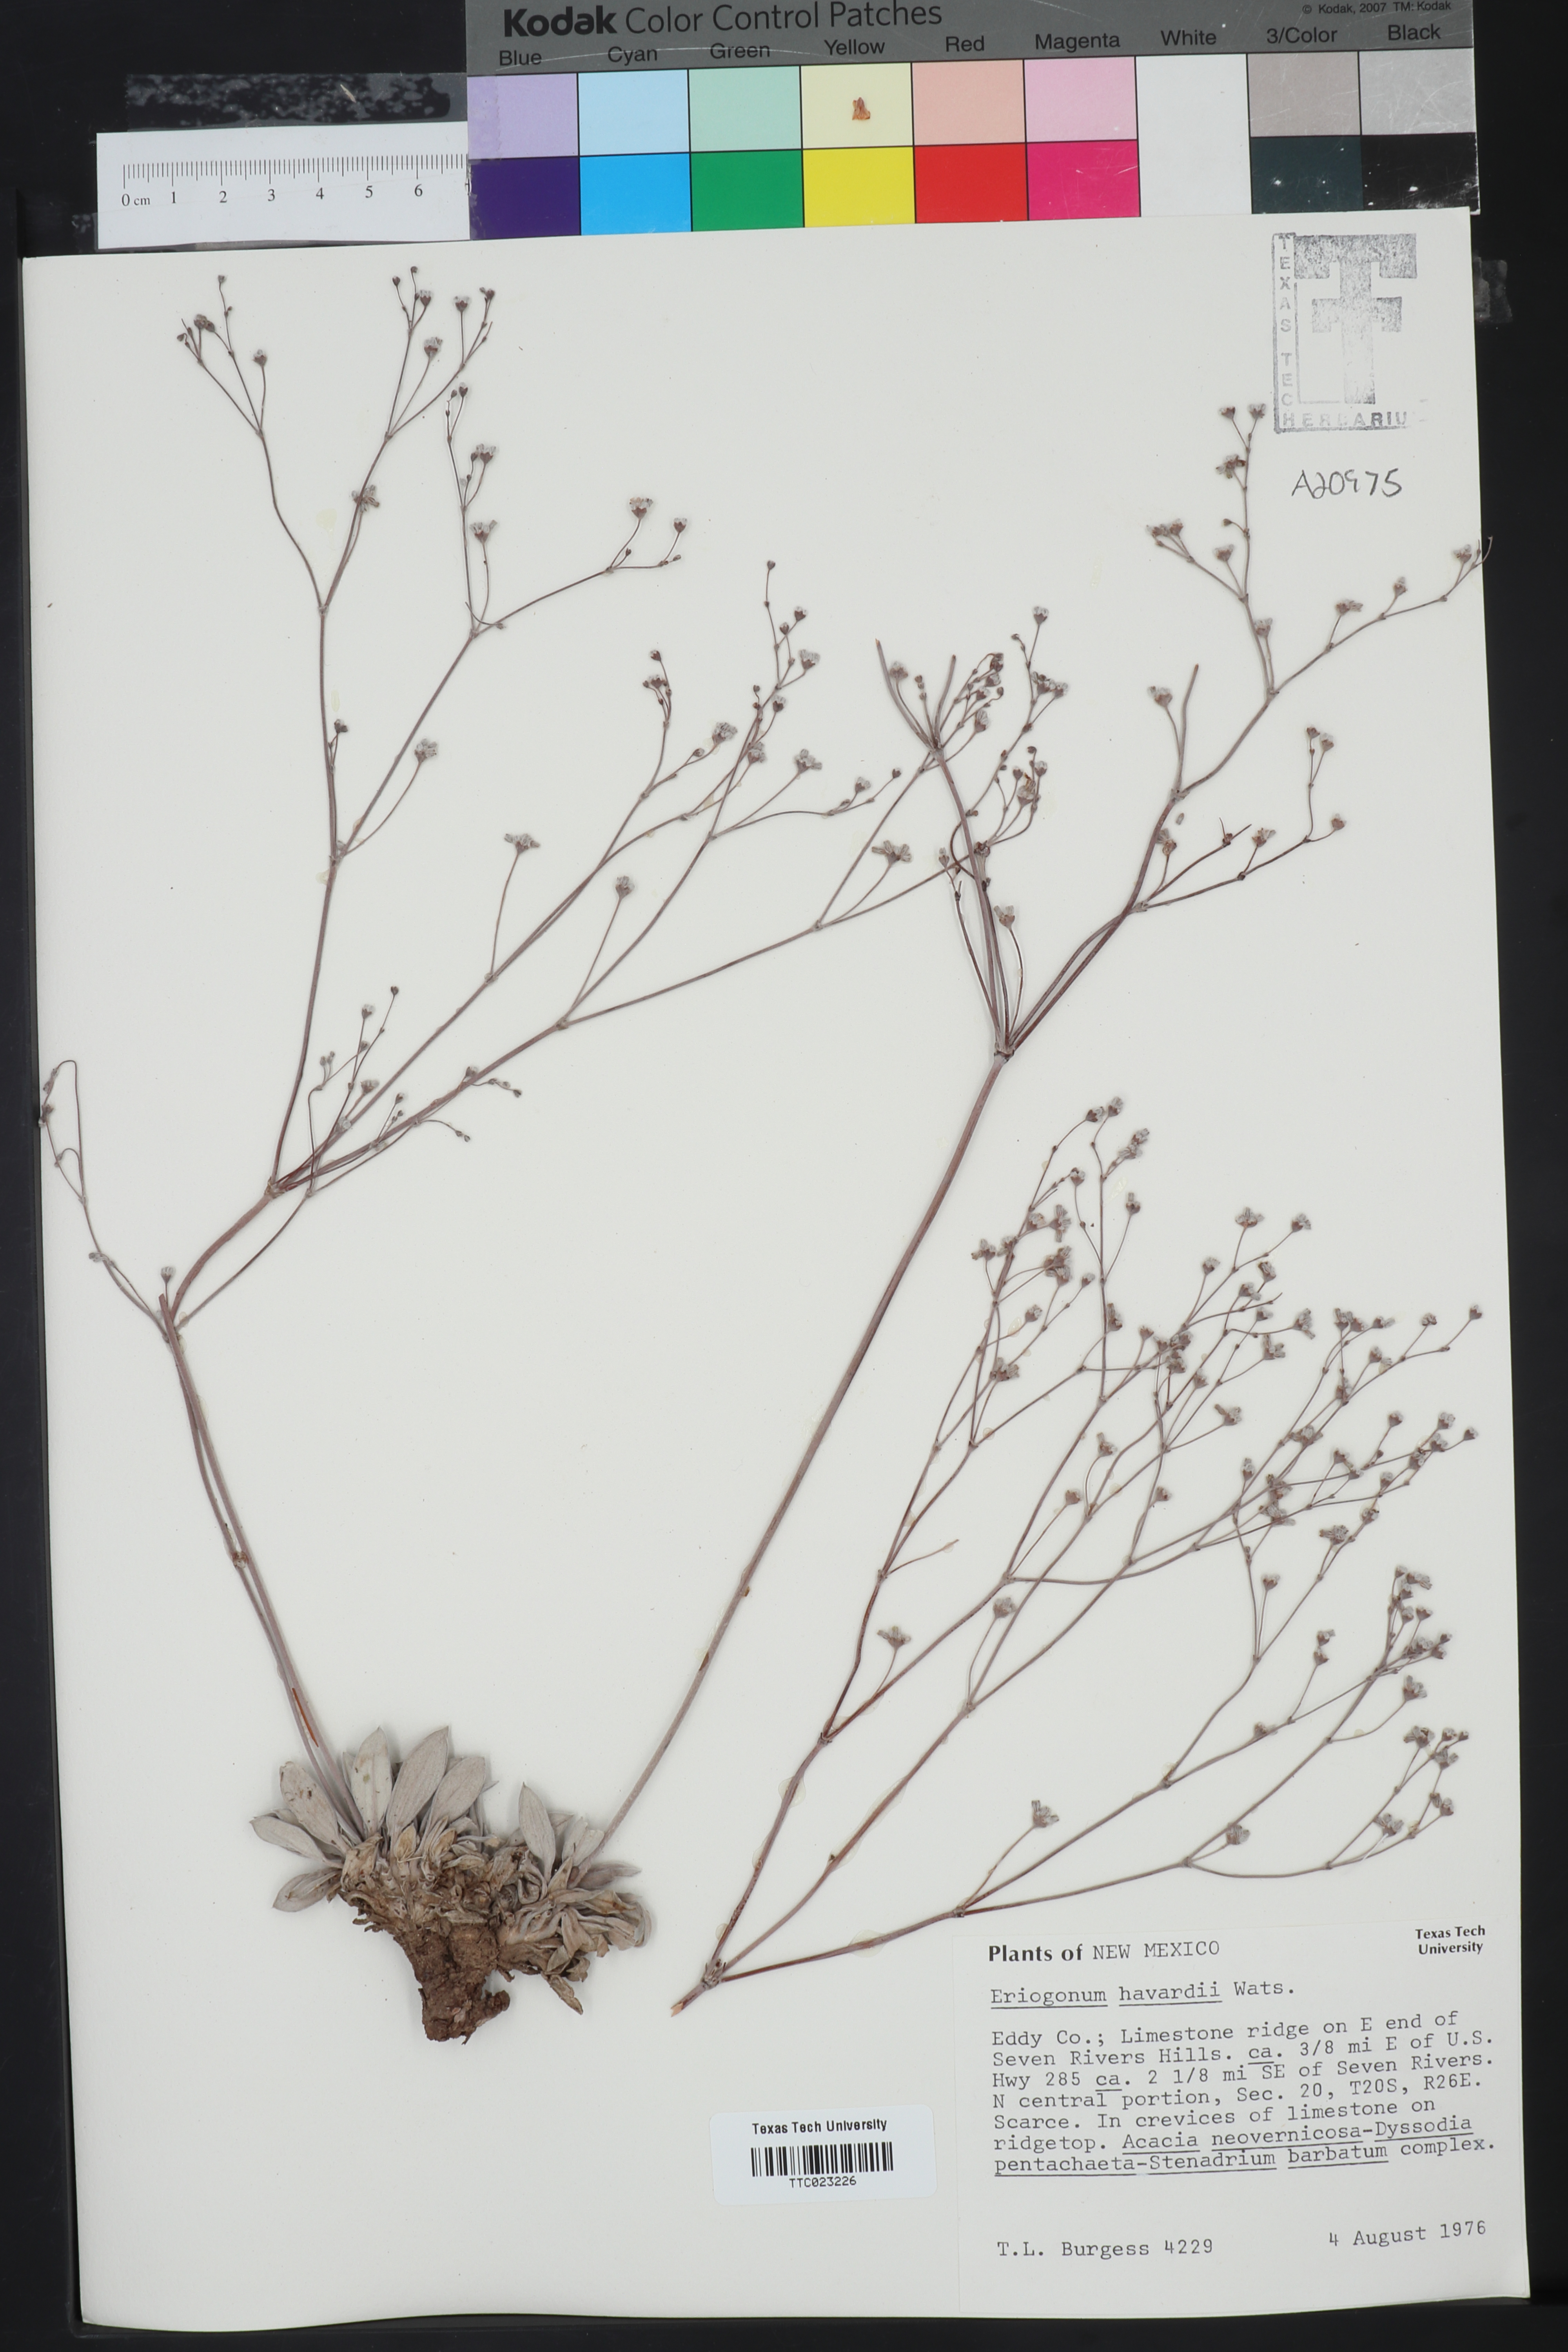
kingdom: Plantae
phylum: Tracheophyta
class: Magnoliopsida
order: Caryophyllales
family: Polygonaceae
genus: Eriogonum
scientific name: Eriogonum havardii
